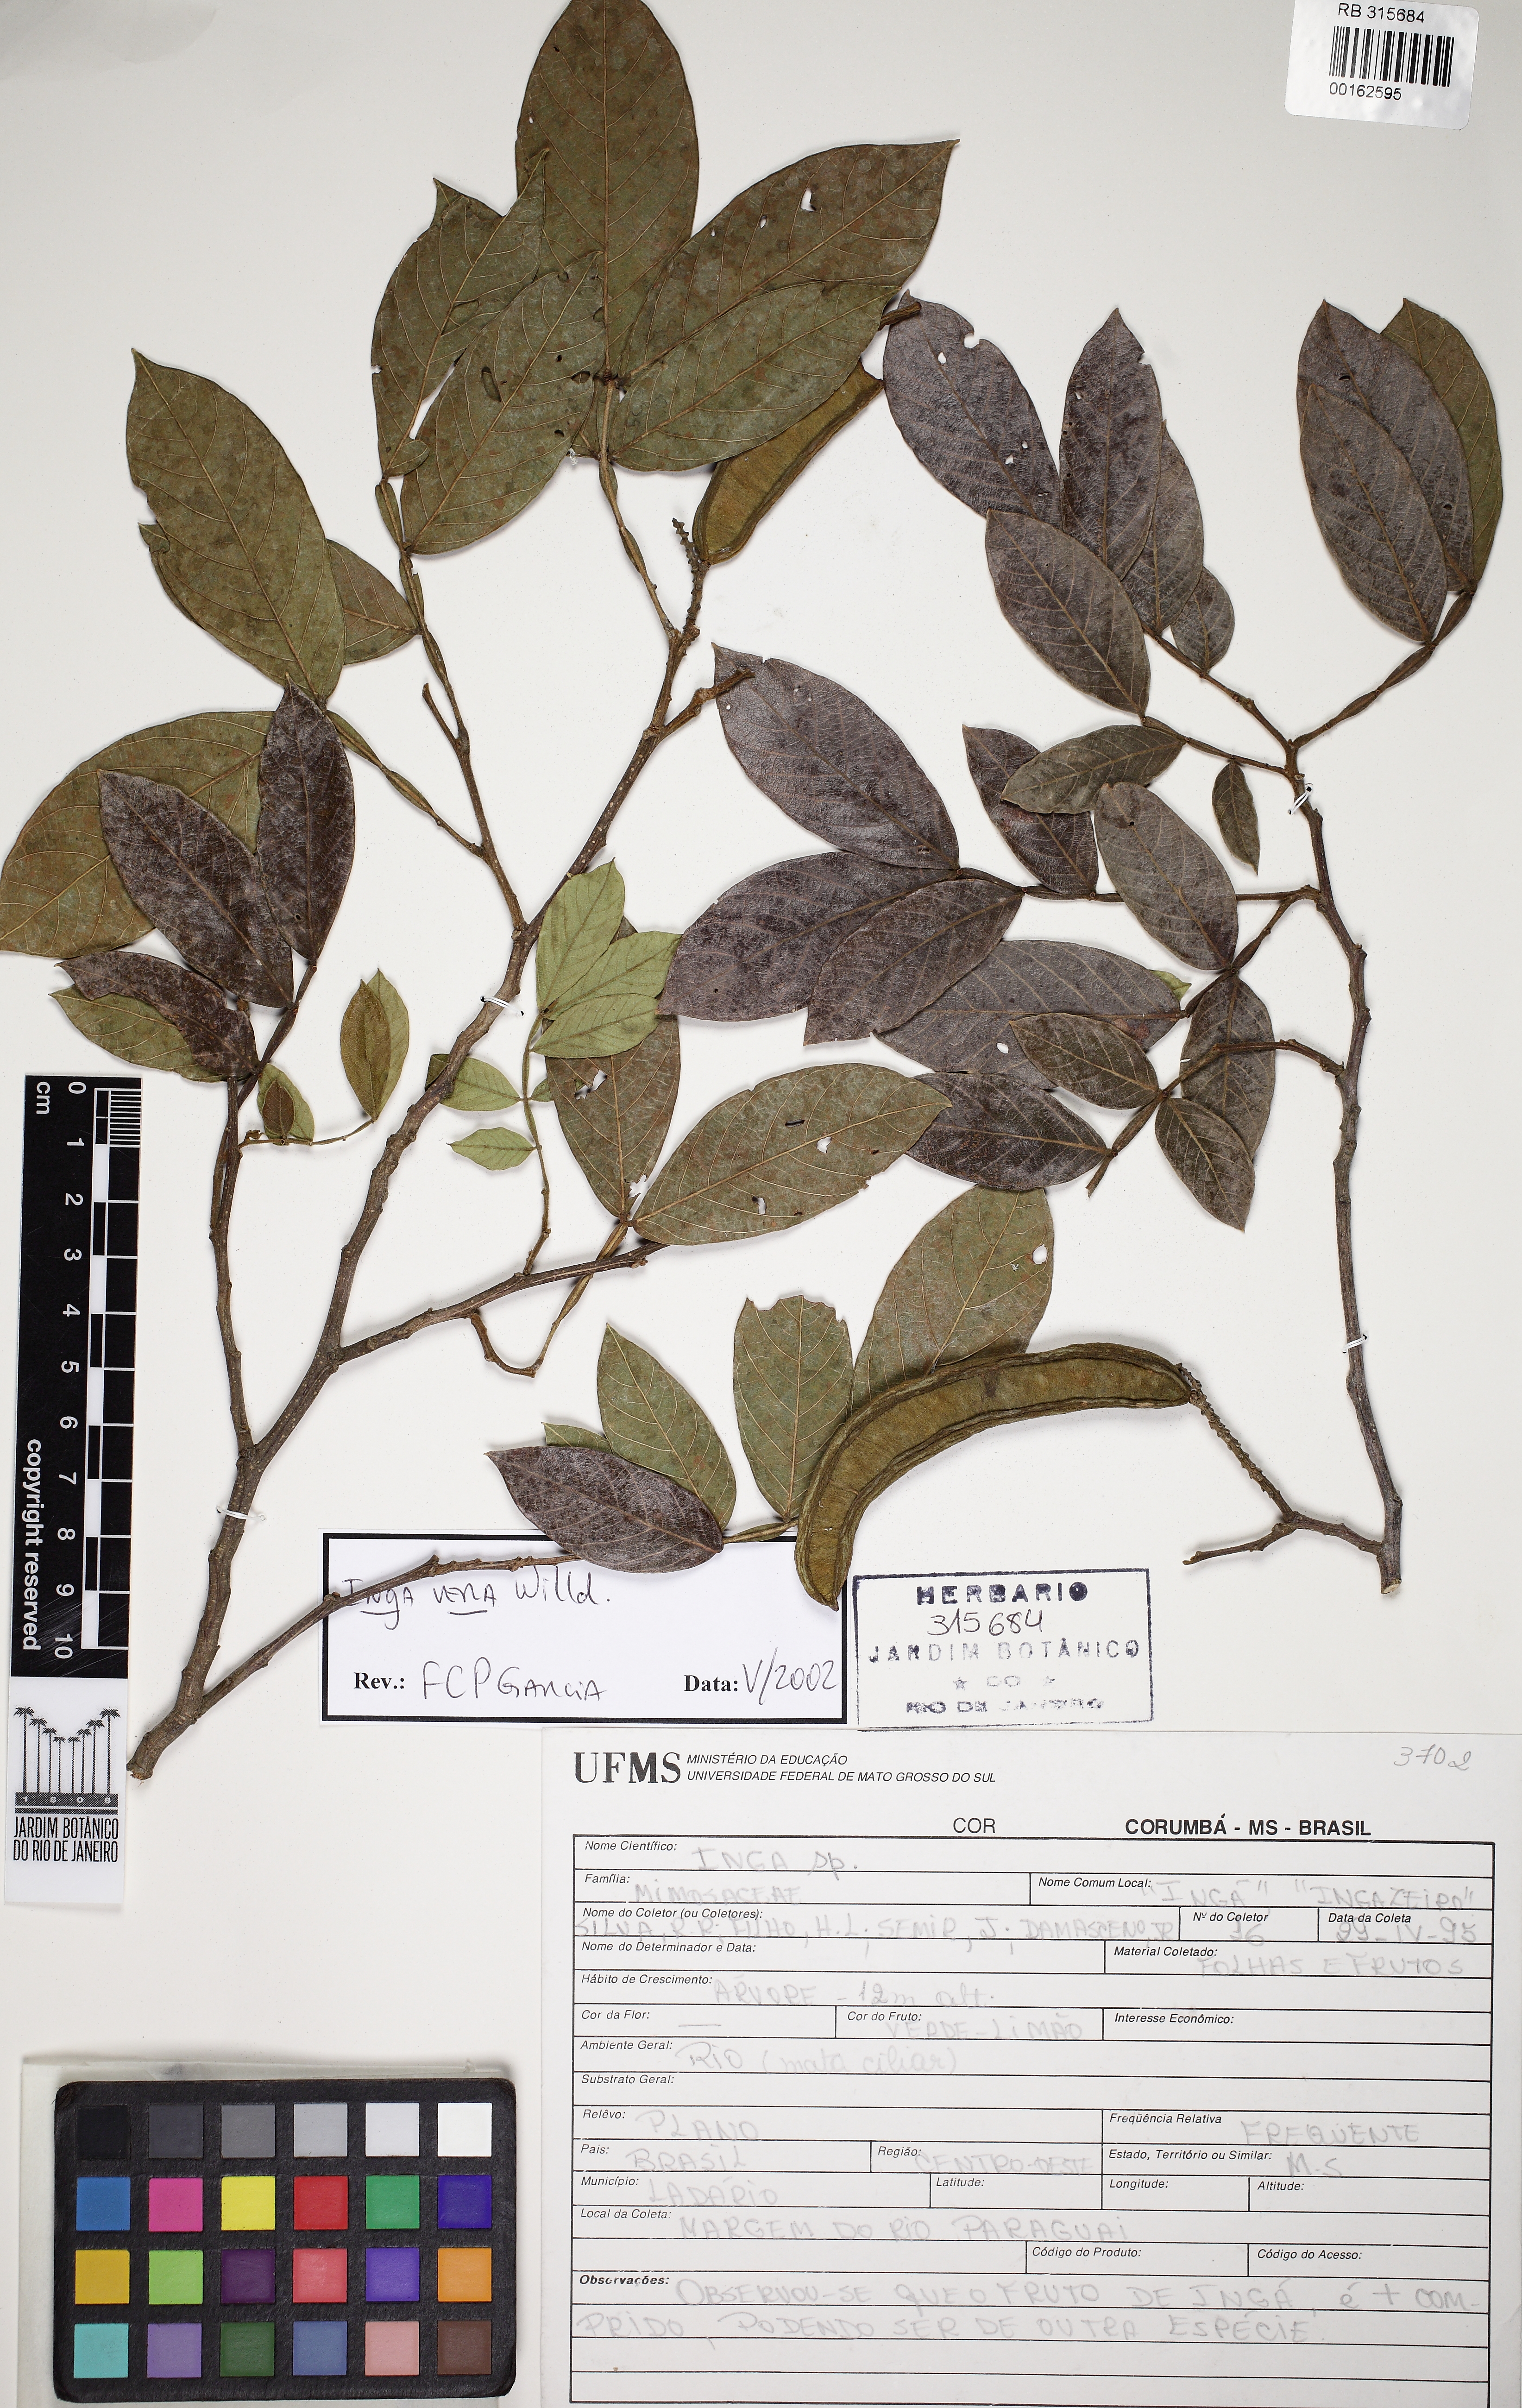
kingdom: Plantae
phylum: Tracheophyta
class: Magnoliopsida
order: Fabales
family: Fabaceae
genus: Inga
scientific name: Inga vera
